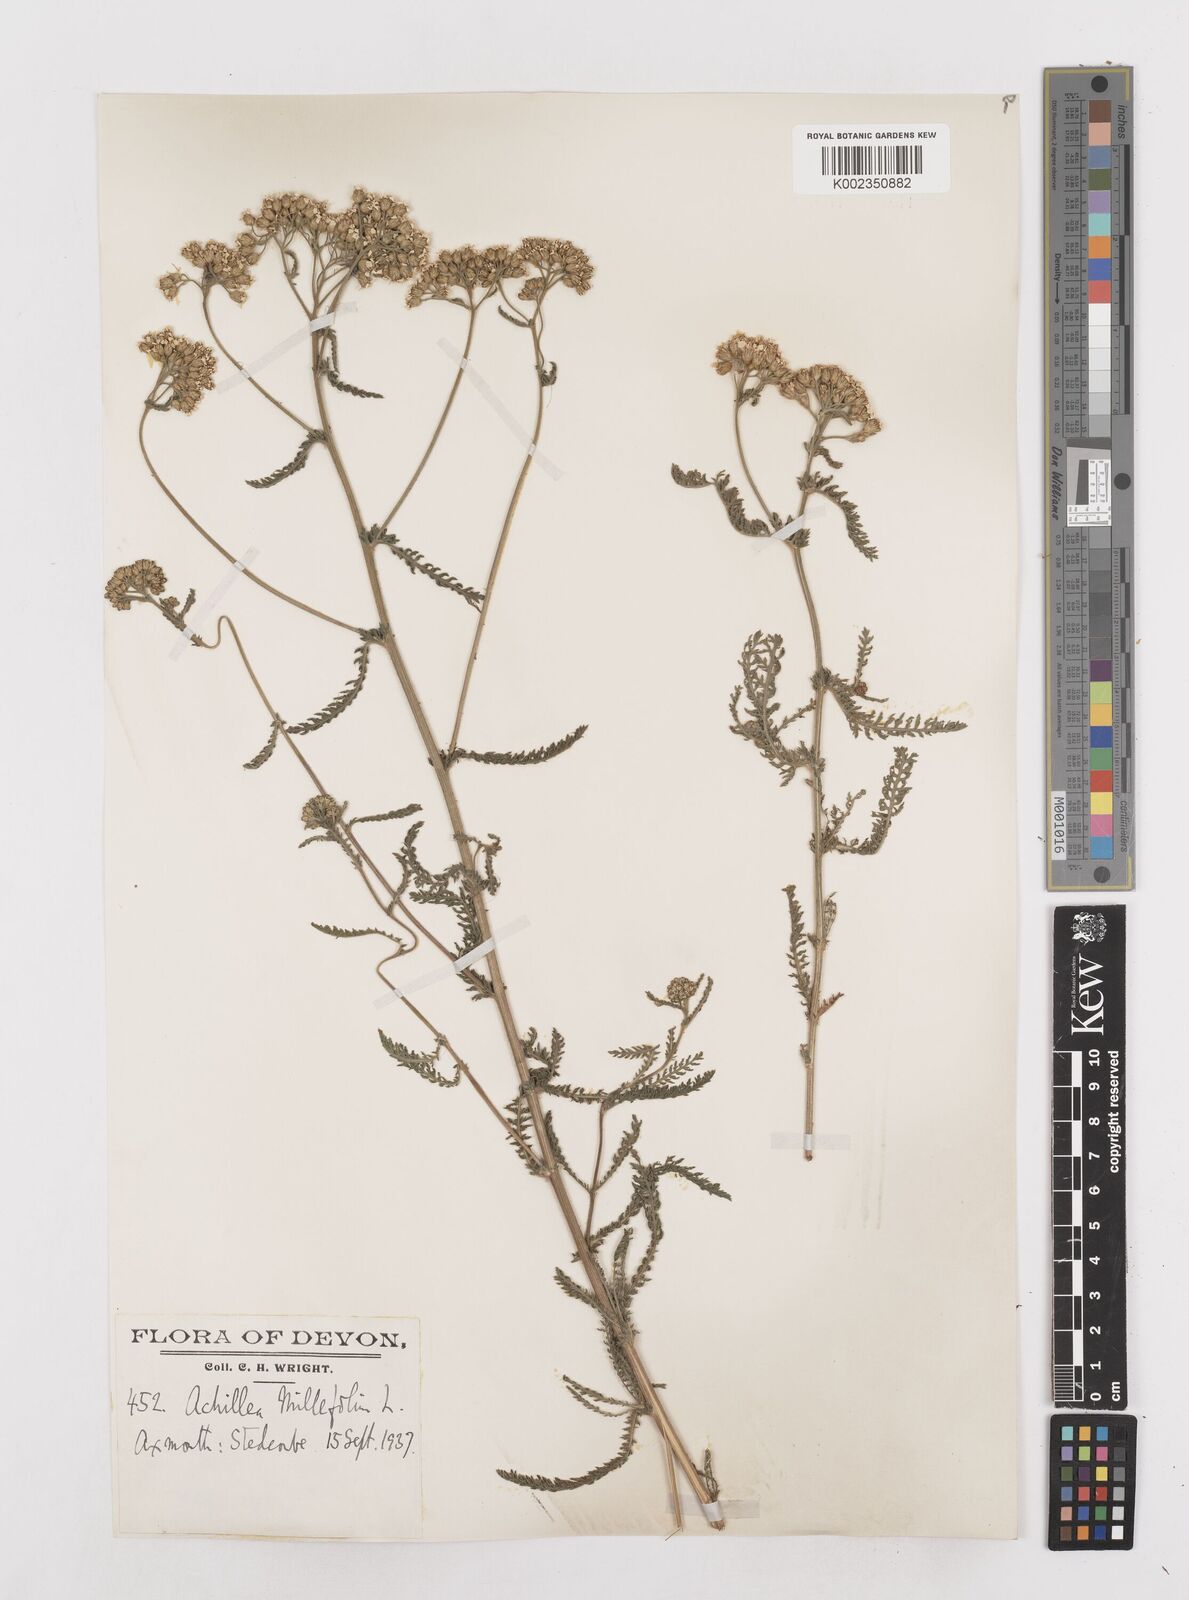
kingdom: Plantae
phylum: Tracheophyta
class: Magnoliopsida
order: Asterales
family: Asteraceae
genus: Achillea
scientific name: Achillea millefolium
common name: Yarrow
